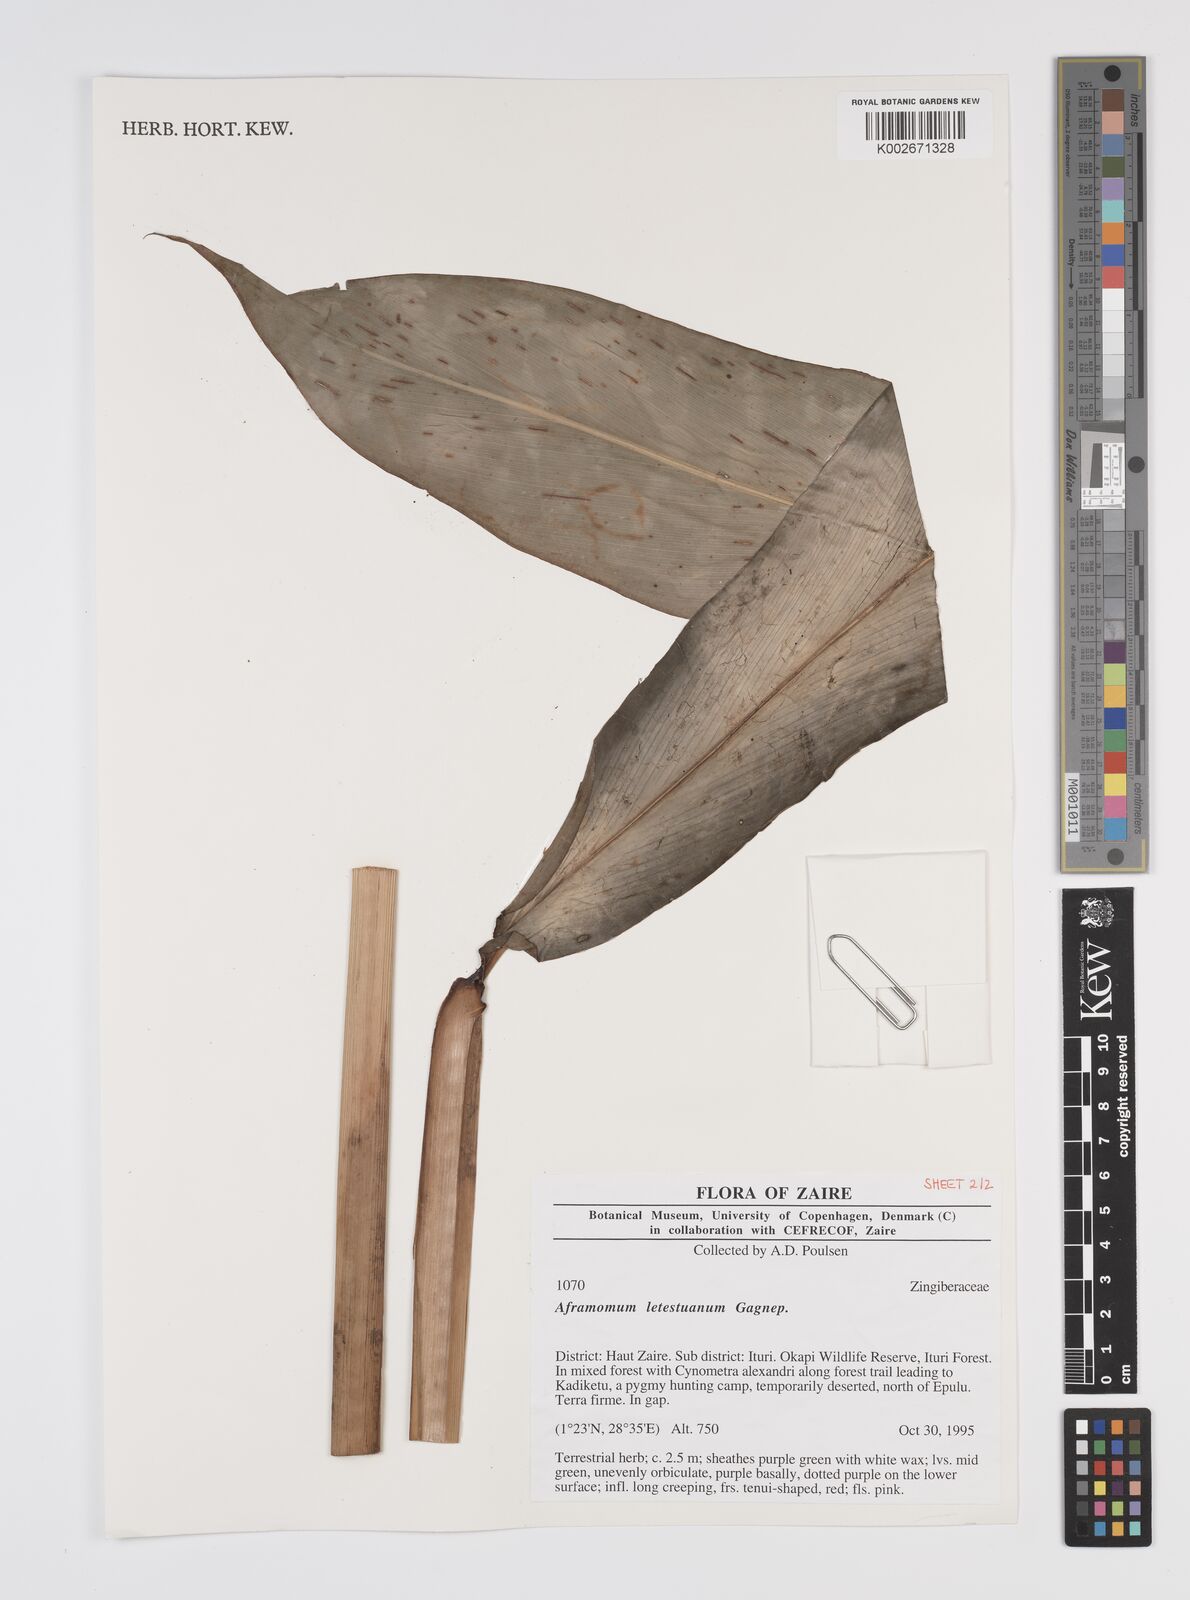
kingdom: Plantae
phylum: Tracheophyta
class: Liliopsida
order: Zingiberales
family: Zingiberaceae
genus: Aframomum
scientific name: Aframomum letestuanum
